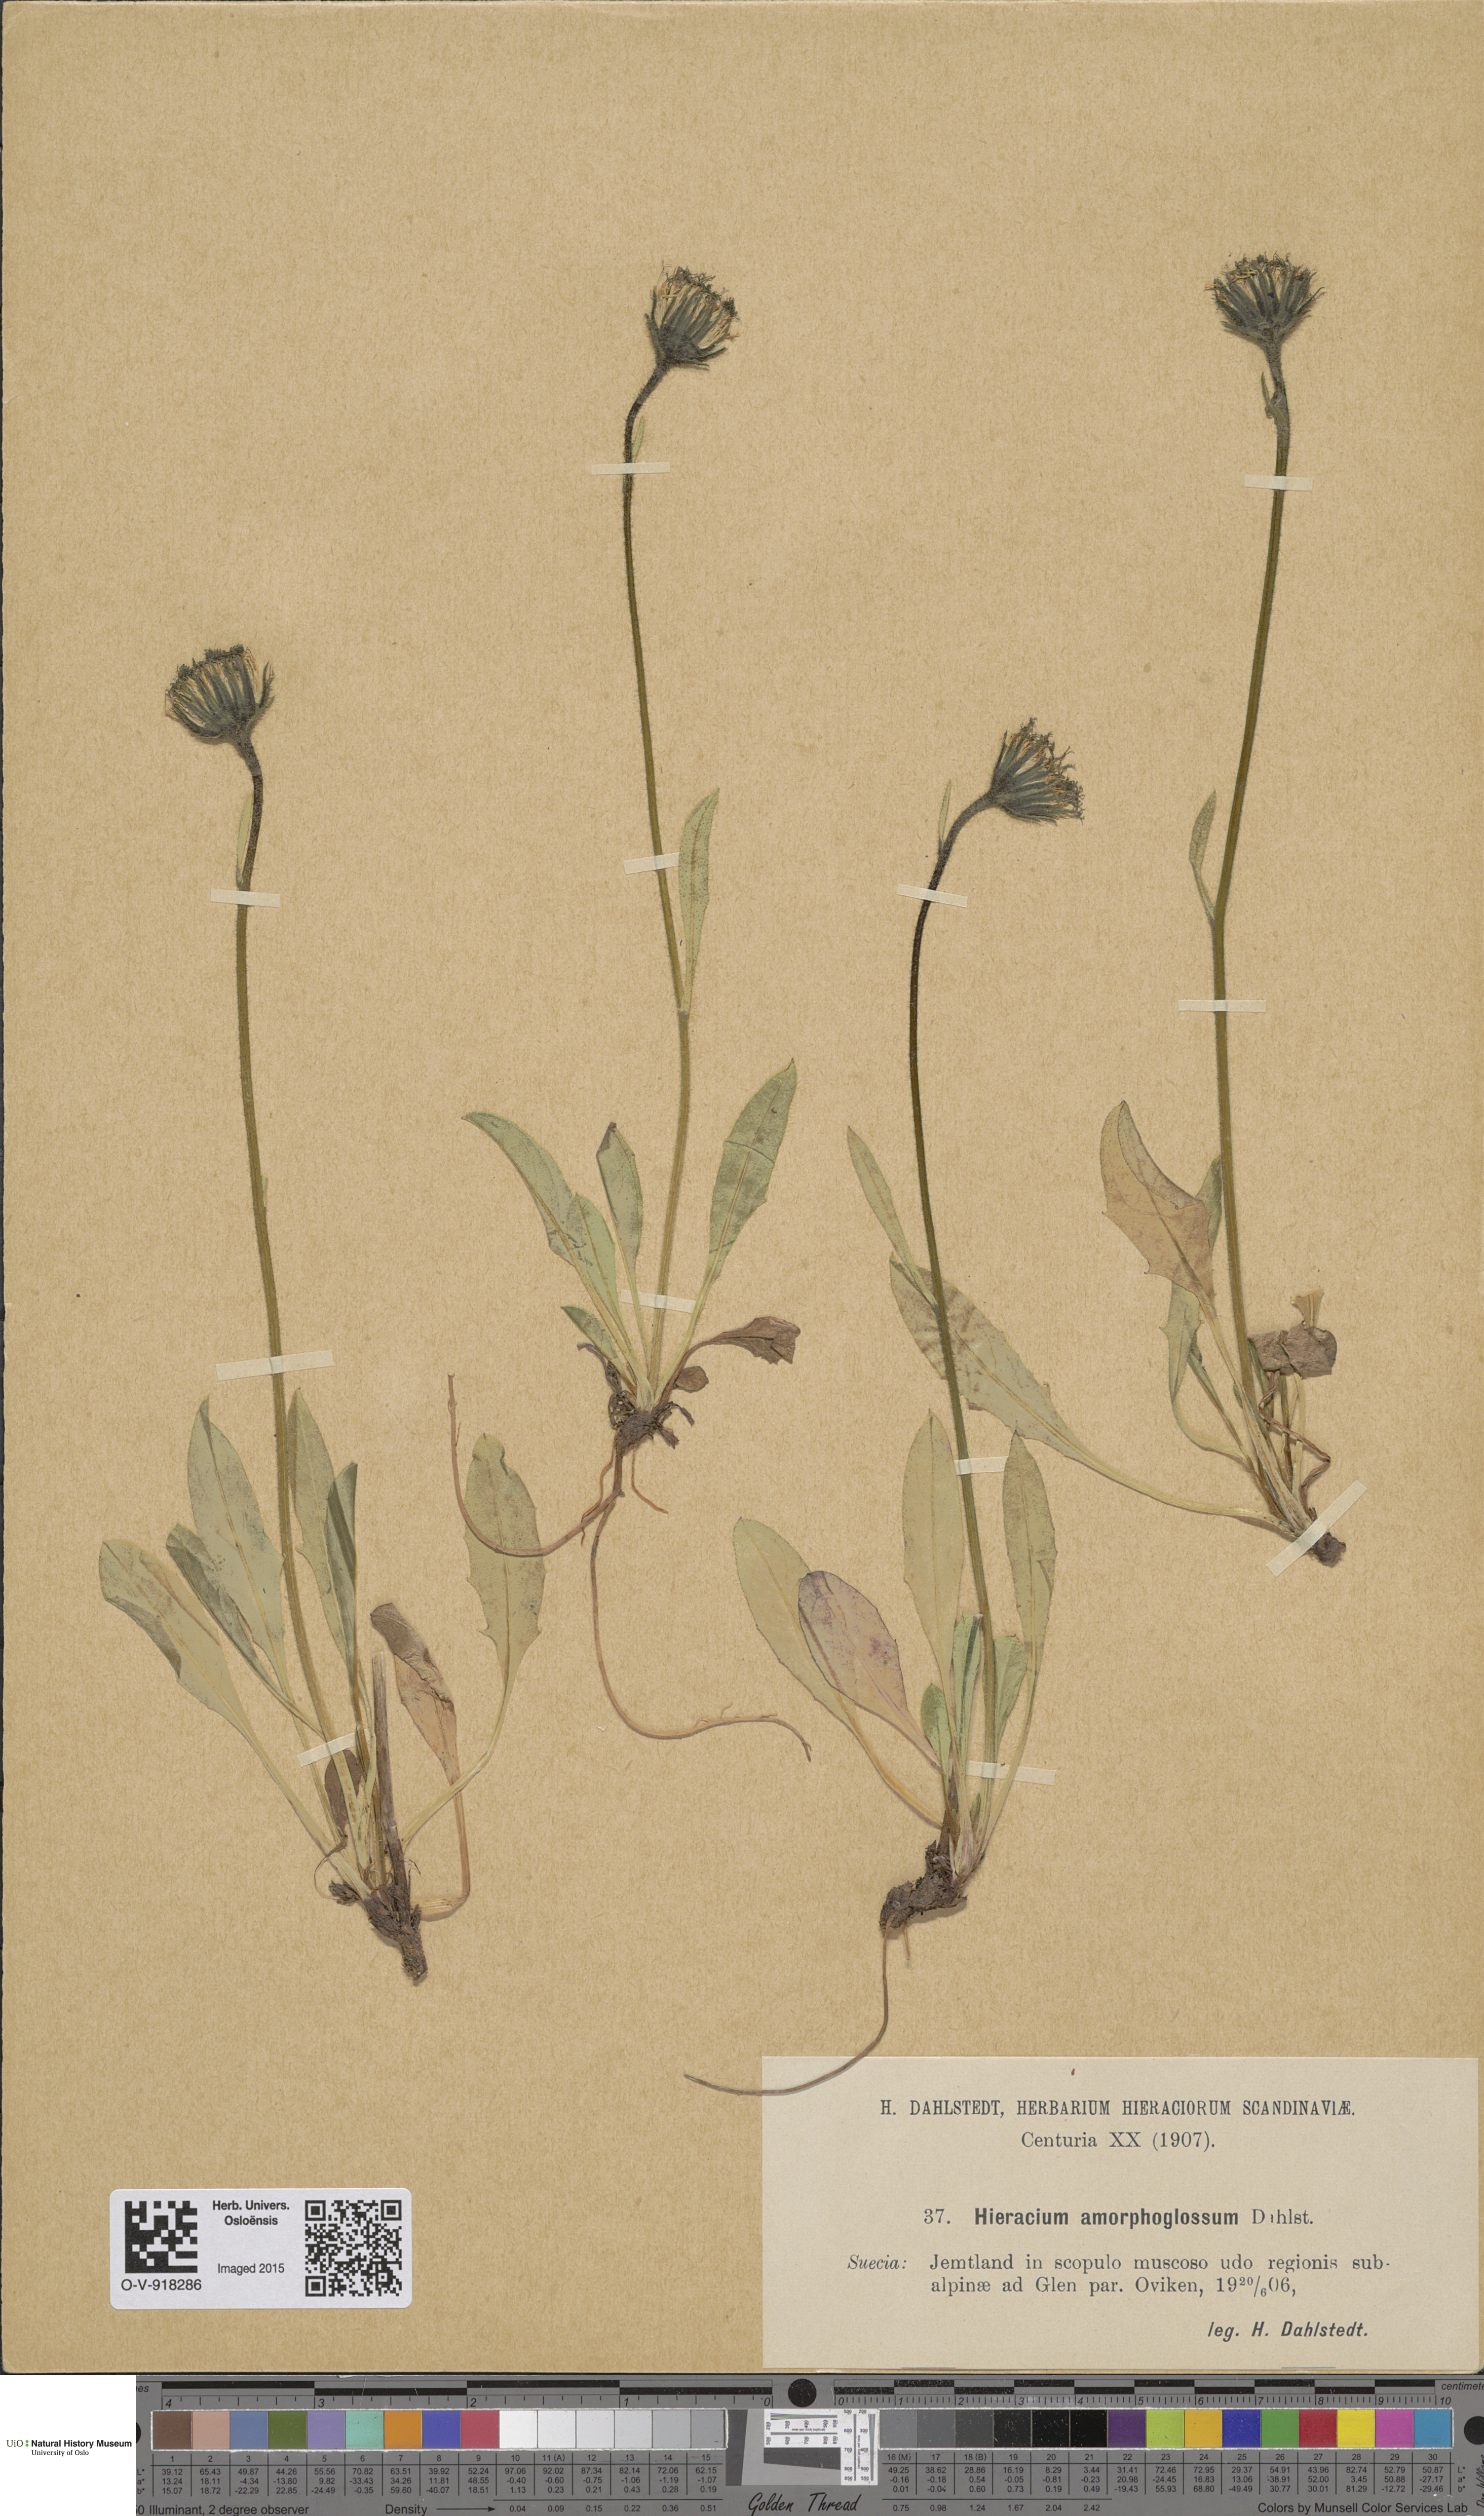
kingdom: Plantae
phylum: Tracheophyta
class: Magnoliopsida
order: Asterales
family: Asteraceae
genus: Hieracium
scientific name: Hieracium
